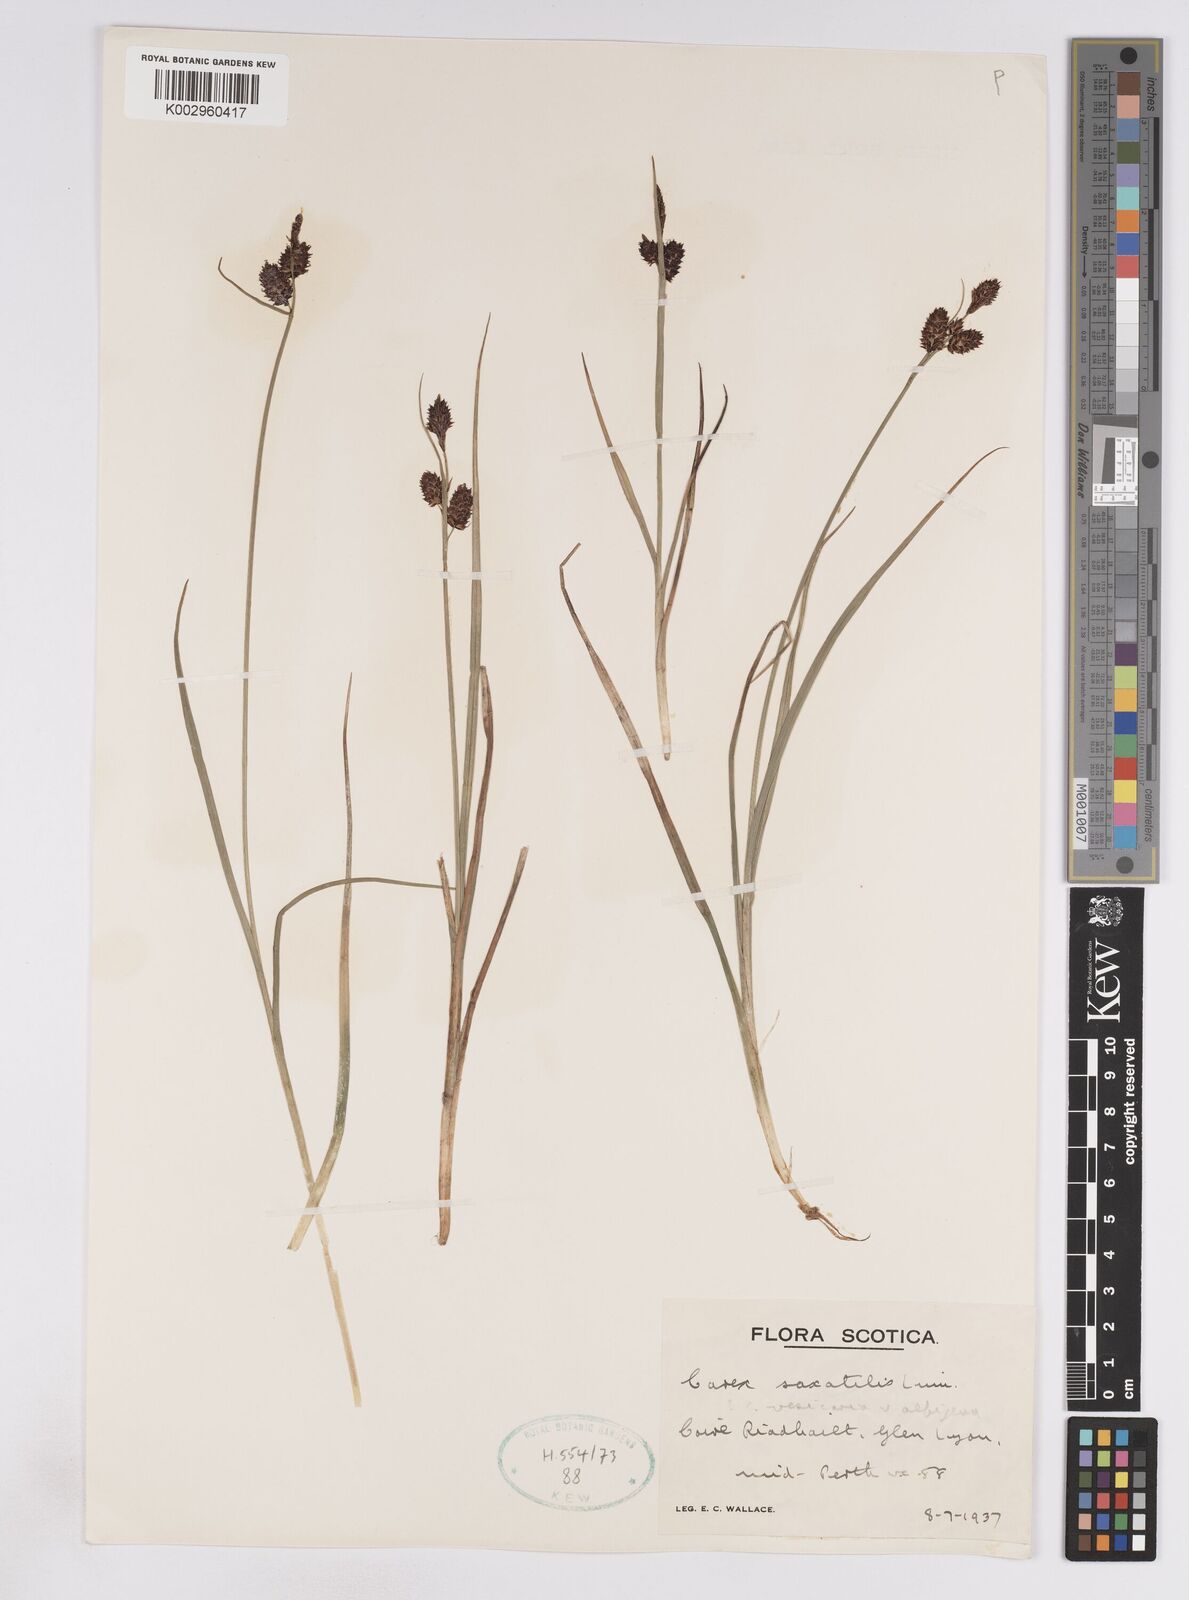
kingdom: Plantae
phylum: Tracheophyta
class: Liliopsida
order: Poales
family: Cyperaceae
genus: Carex
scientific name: Carex saxatilis
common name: Russet sedge
